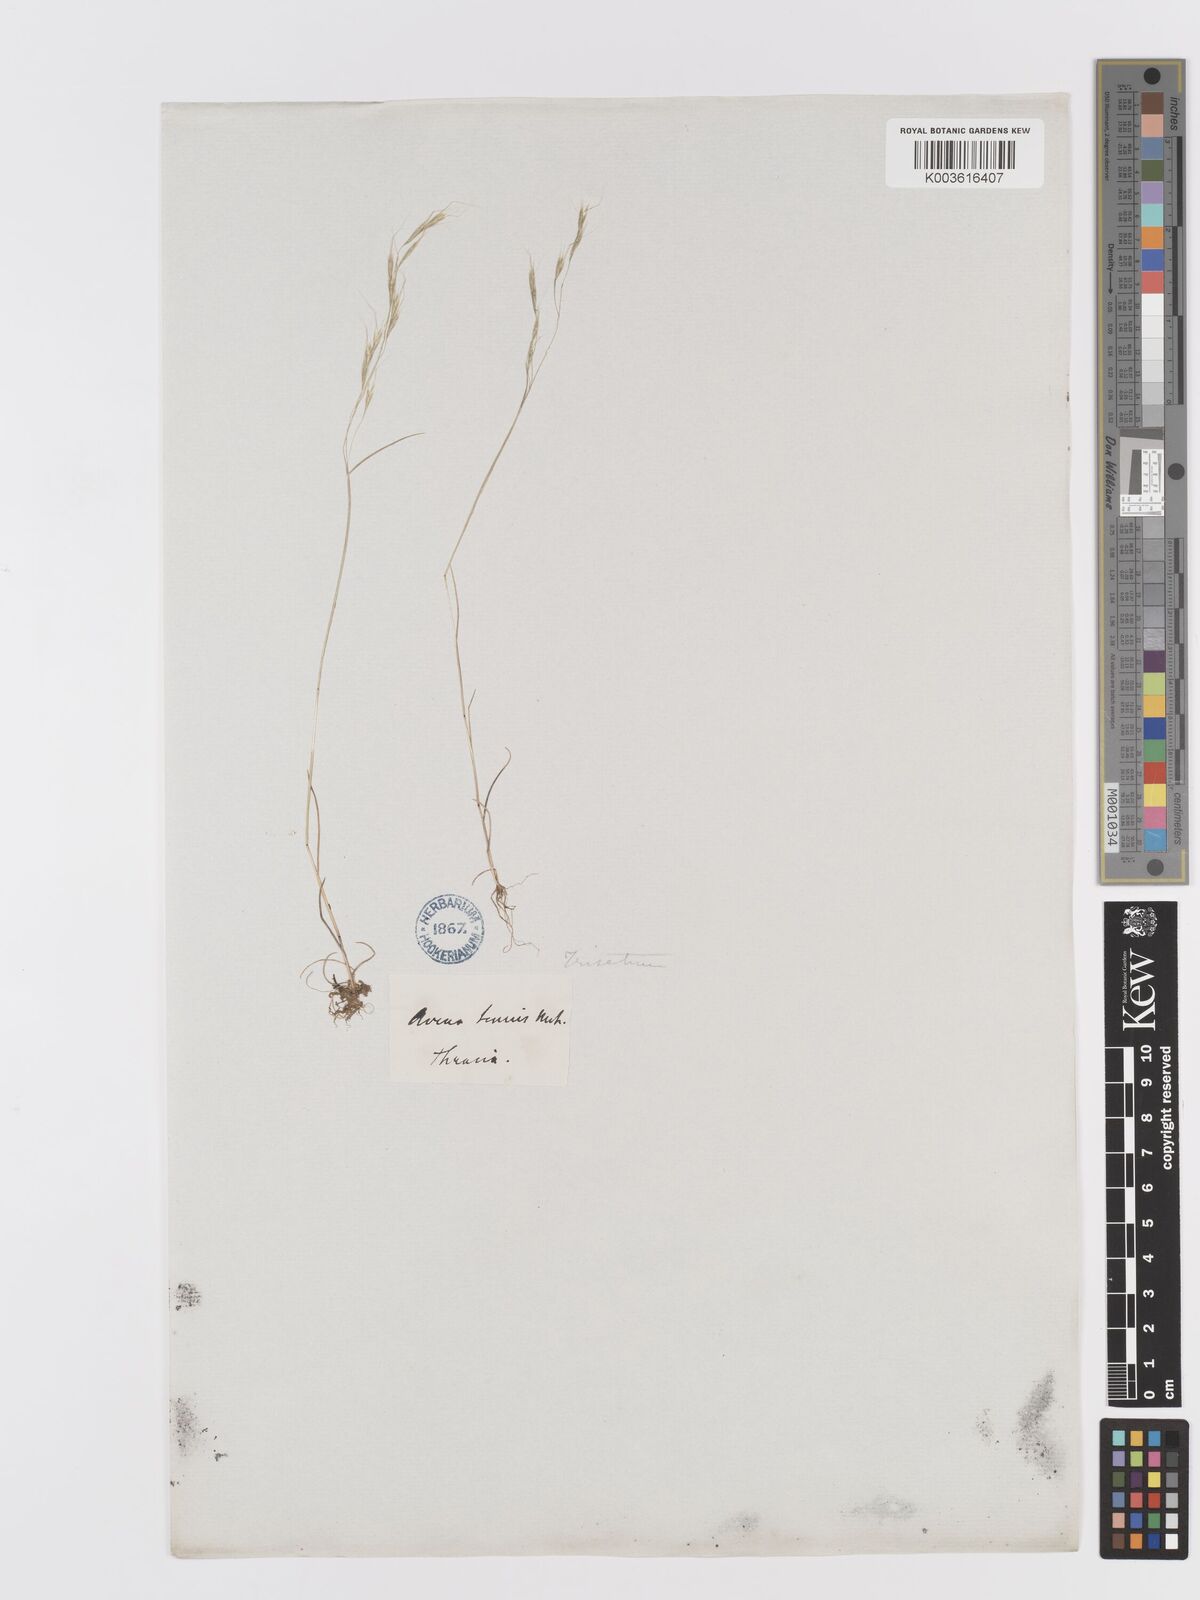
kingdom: Plantae
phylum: Tracheophyta
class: Liliopsida
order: Poales
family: Poaceae
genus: Ventenata
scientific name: Ventenata dubia
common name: North africa grass
